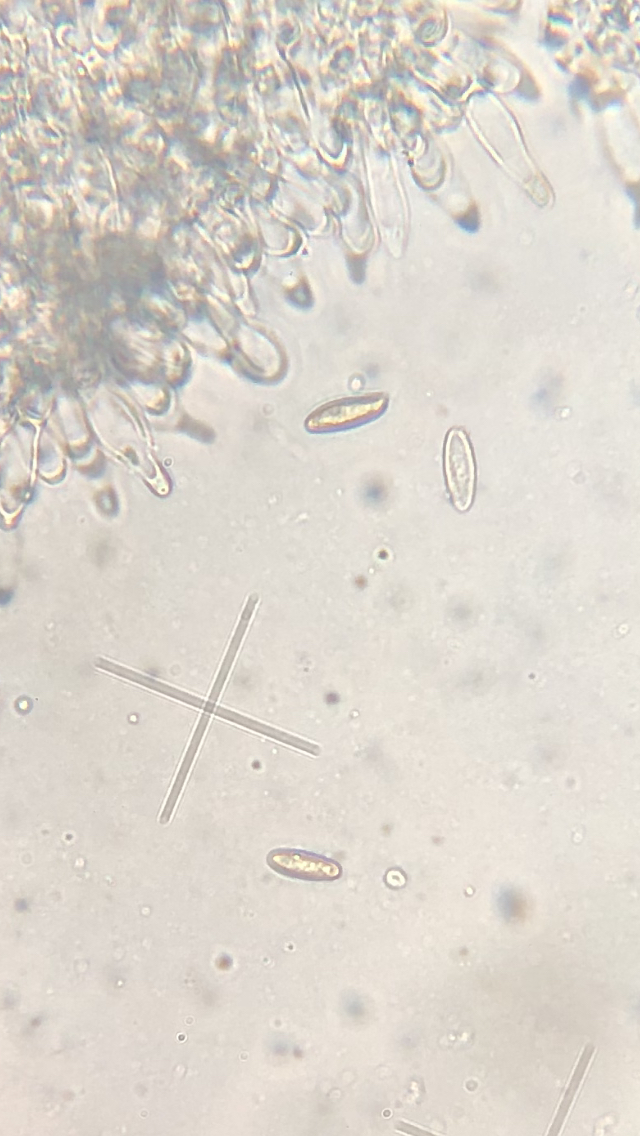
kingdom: Fungi
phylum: Basidiomycota
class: Agaricomycetes
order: Boletales
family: Boletaceae
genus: Leccinum
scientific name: Leccinum
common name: skælrørhat
